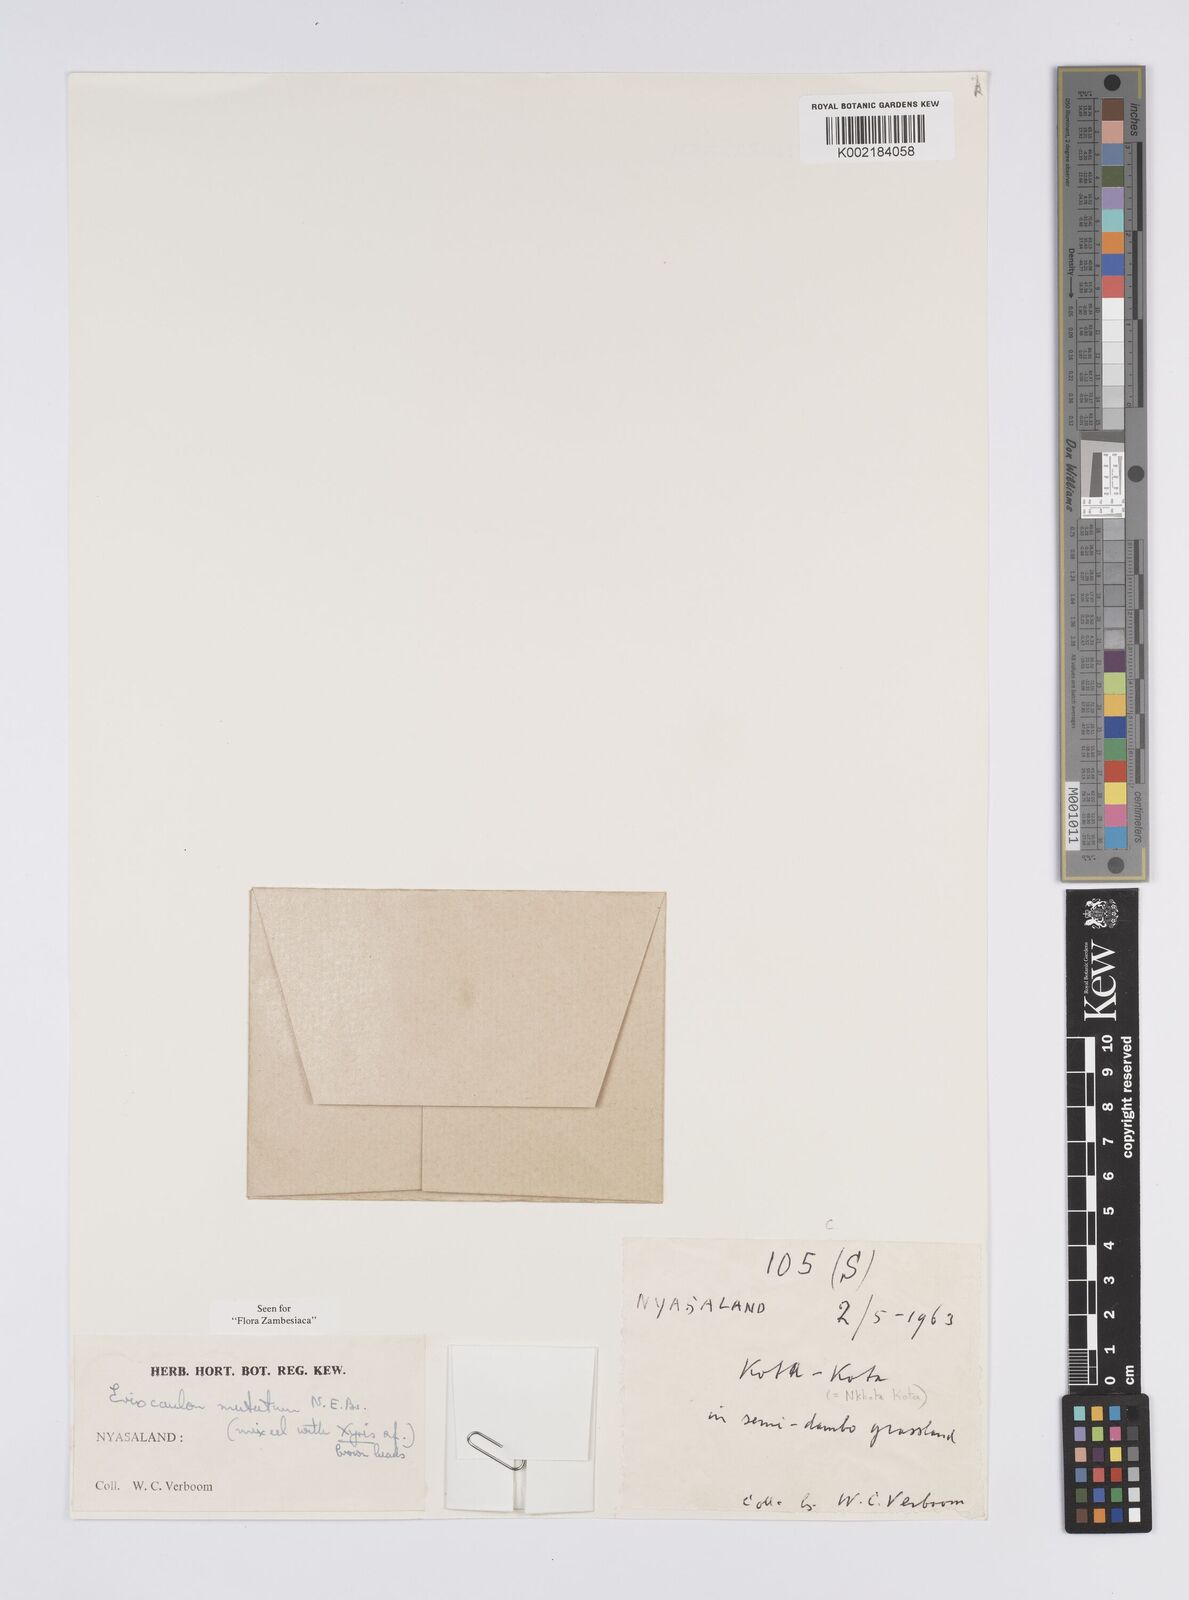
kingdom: Plantae
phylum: Tracheophyta
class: Liliopsida
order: Poales
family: Eriocaulaceae
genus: Eriocaulon
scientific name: Eriocaulon mutatum
